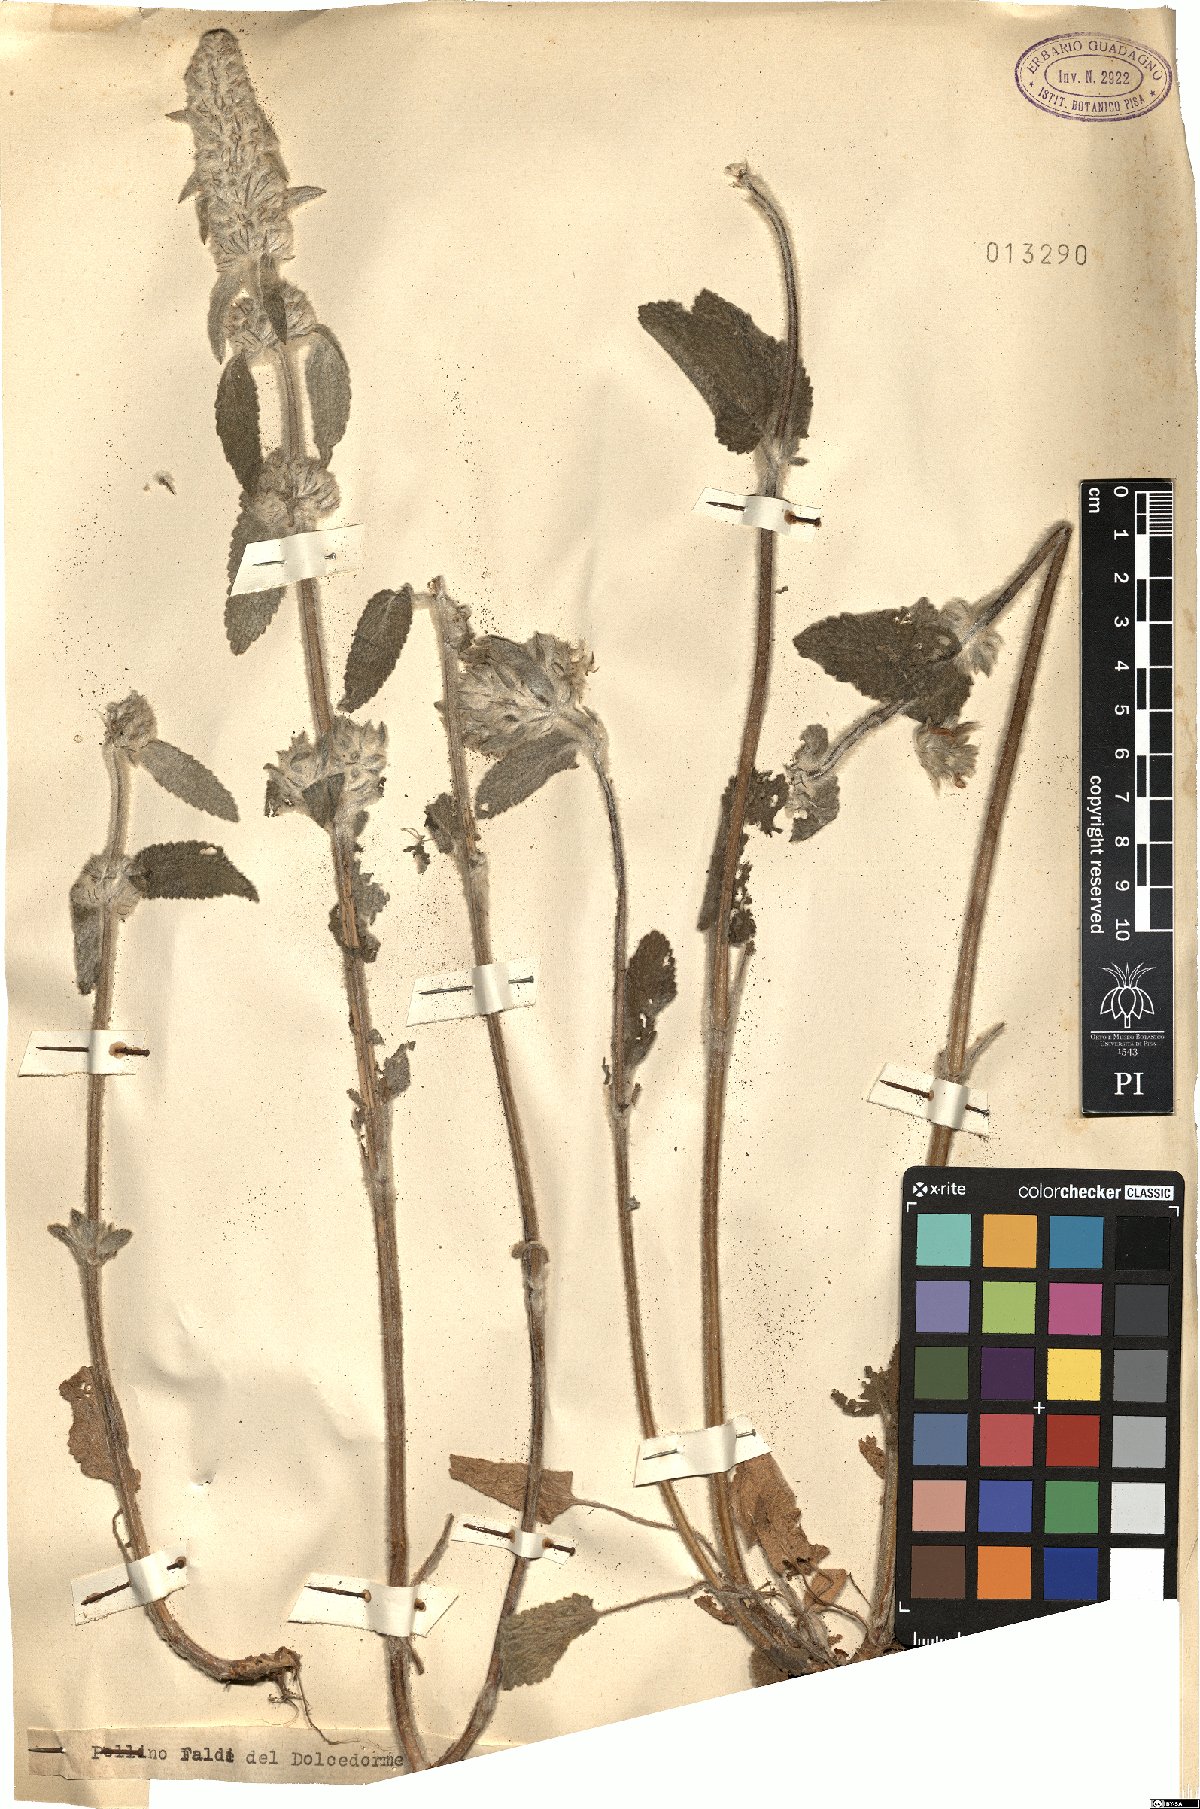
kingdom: Plantae
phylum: Tracheophyta
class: Magnoliopsida
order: Lamiales
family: Lamiaceae
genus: Stachys
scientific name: Stachys
